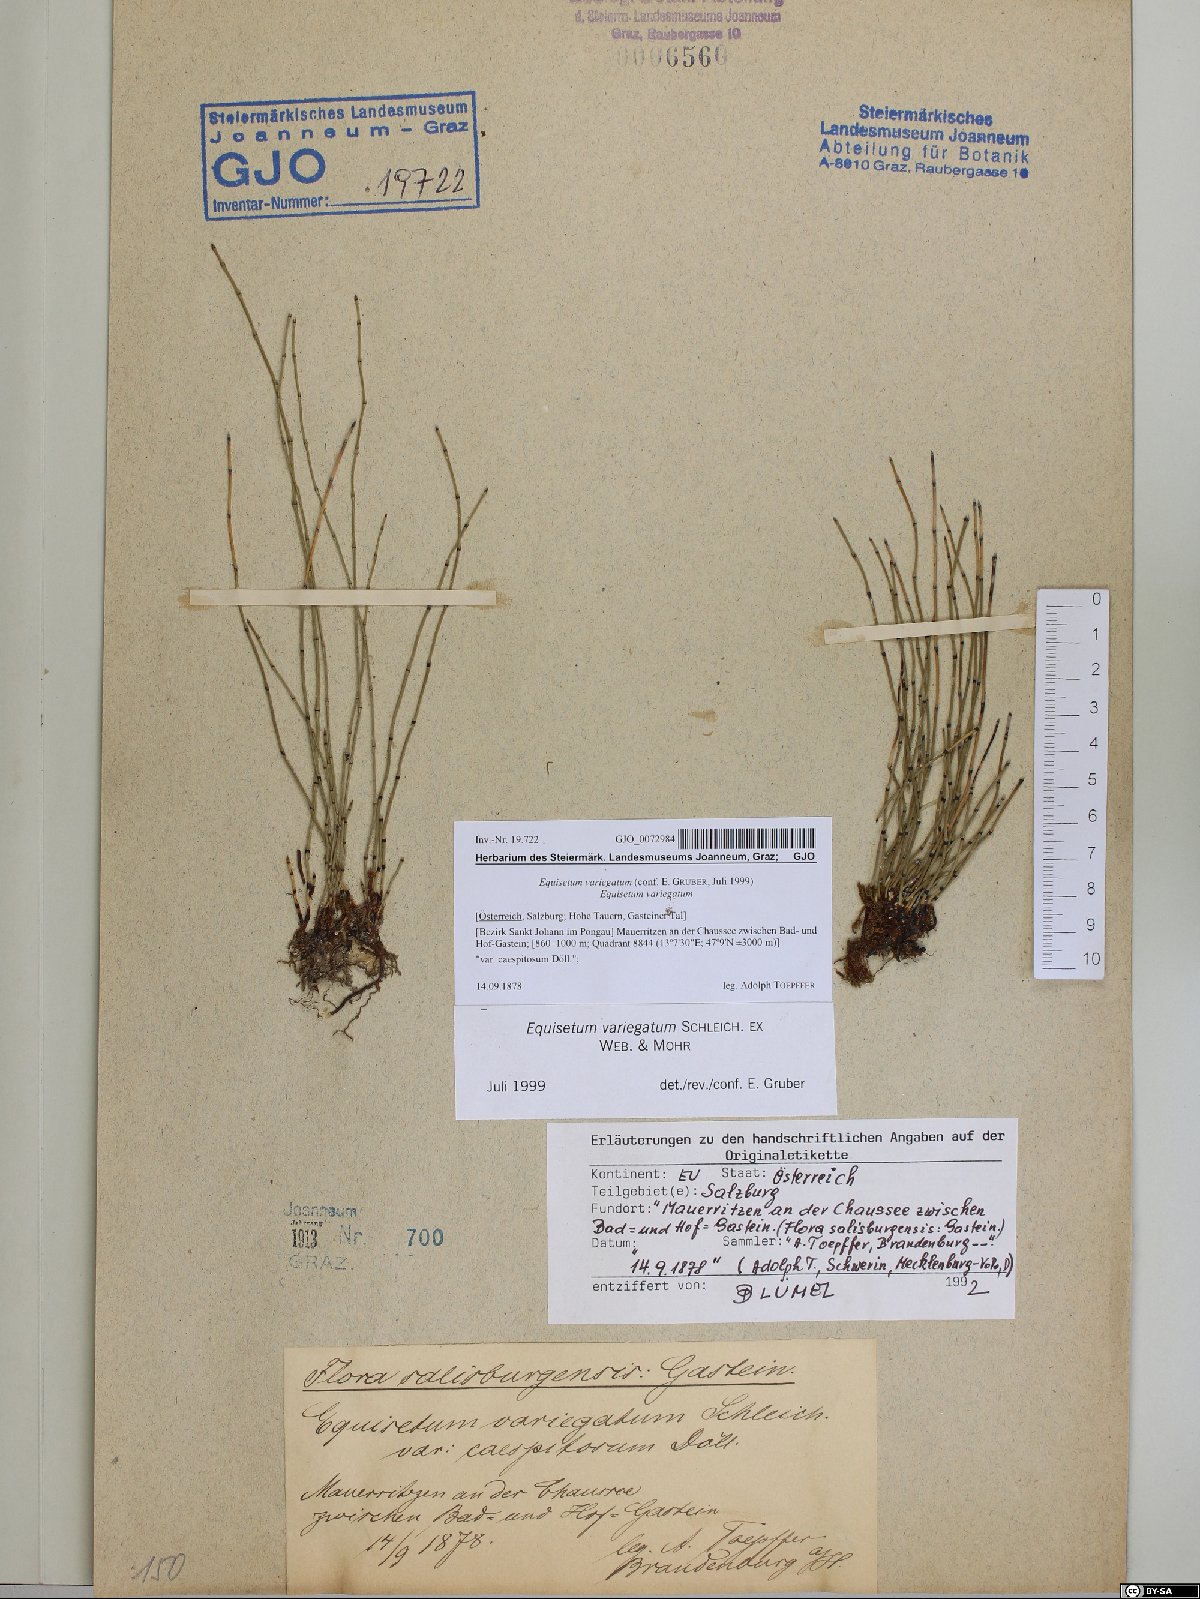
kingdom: Plantae
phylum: Tracheophyta
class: Polypodiopsida
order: Equisetales
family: Equisetaceae
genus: Equisetum
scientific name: Equisetum variegatum
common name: Variegated horsetail
